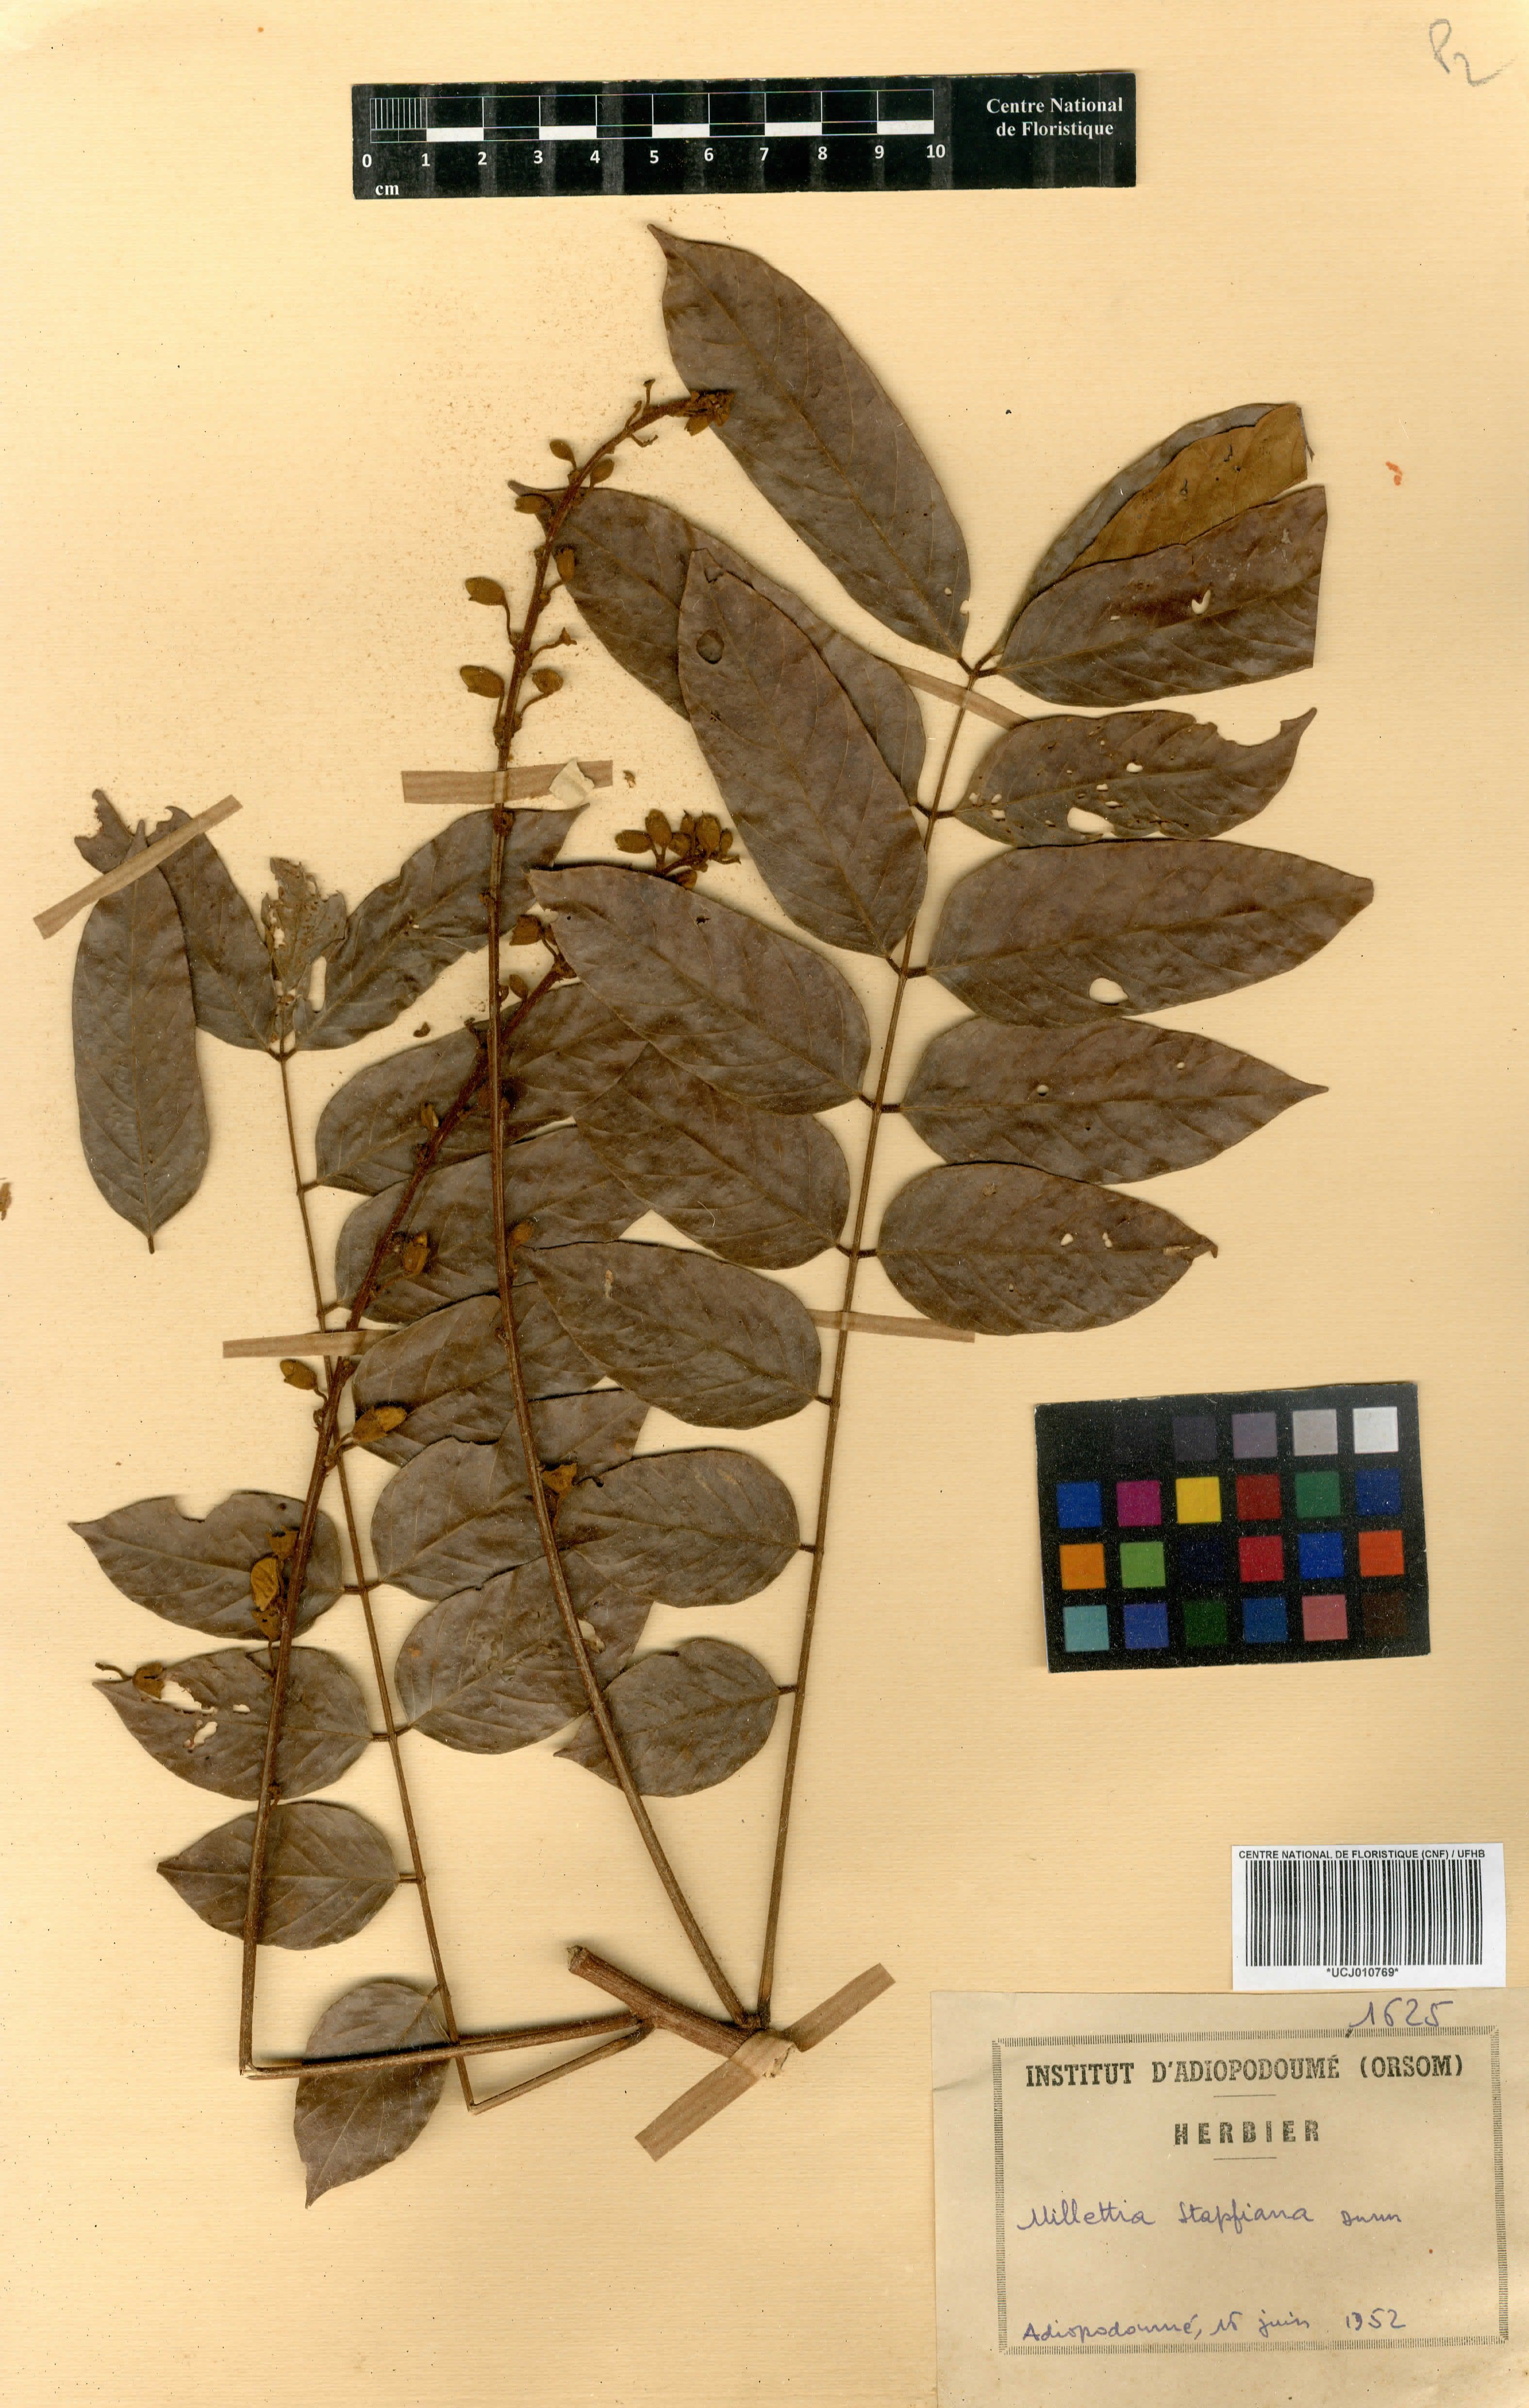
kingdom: Plantae
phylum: Tracheophyta
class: Magnoliopsida
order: Fabales
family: Fabaceae
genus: Millettia
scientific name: Millettia zechiana
